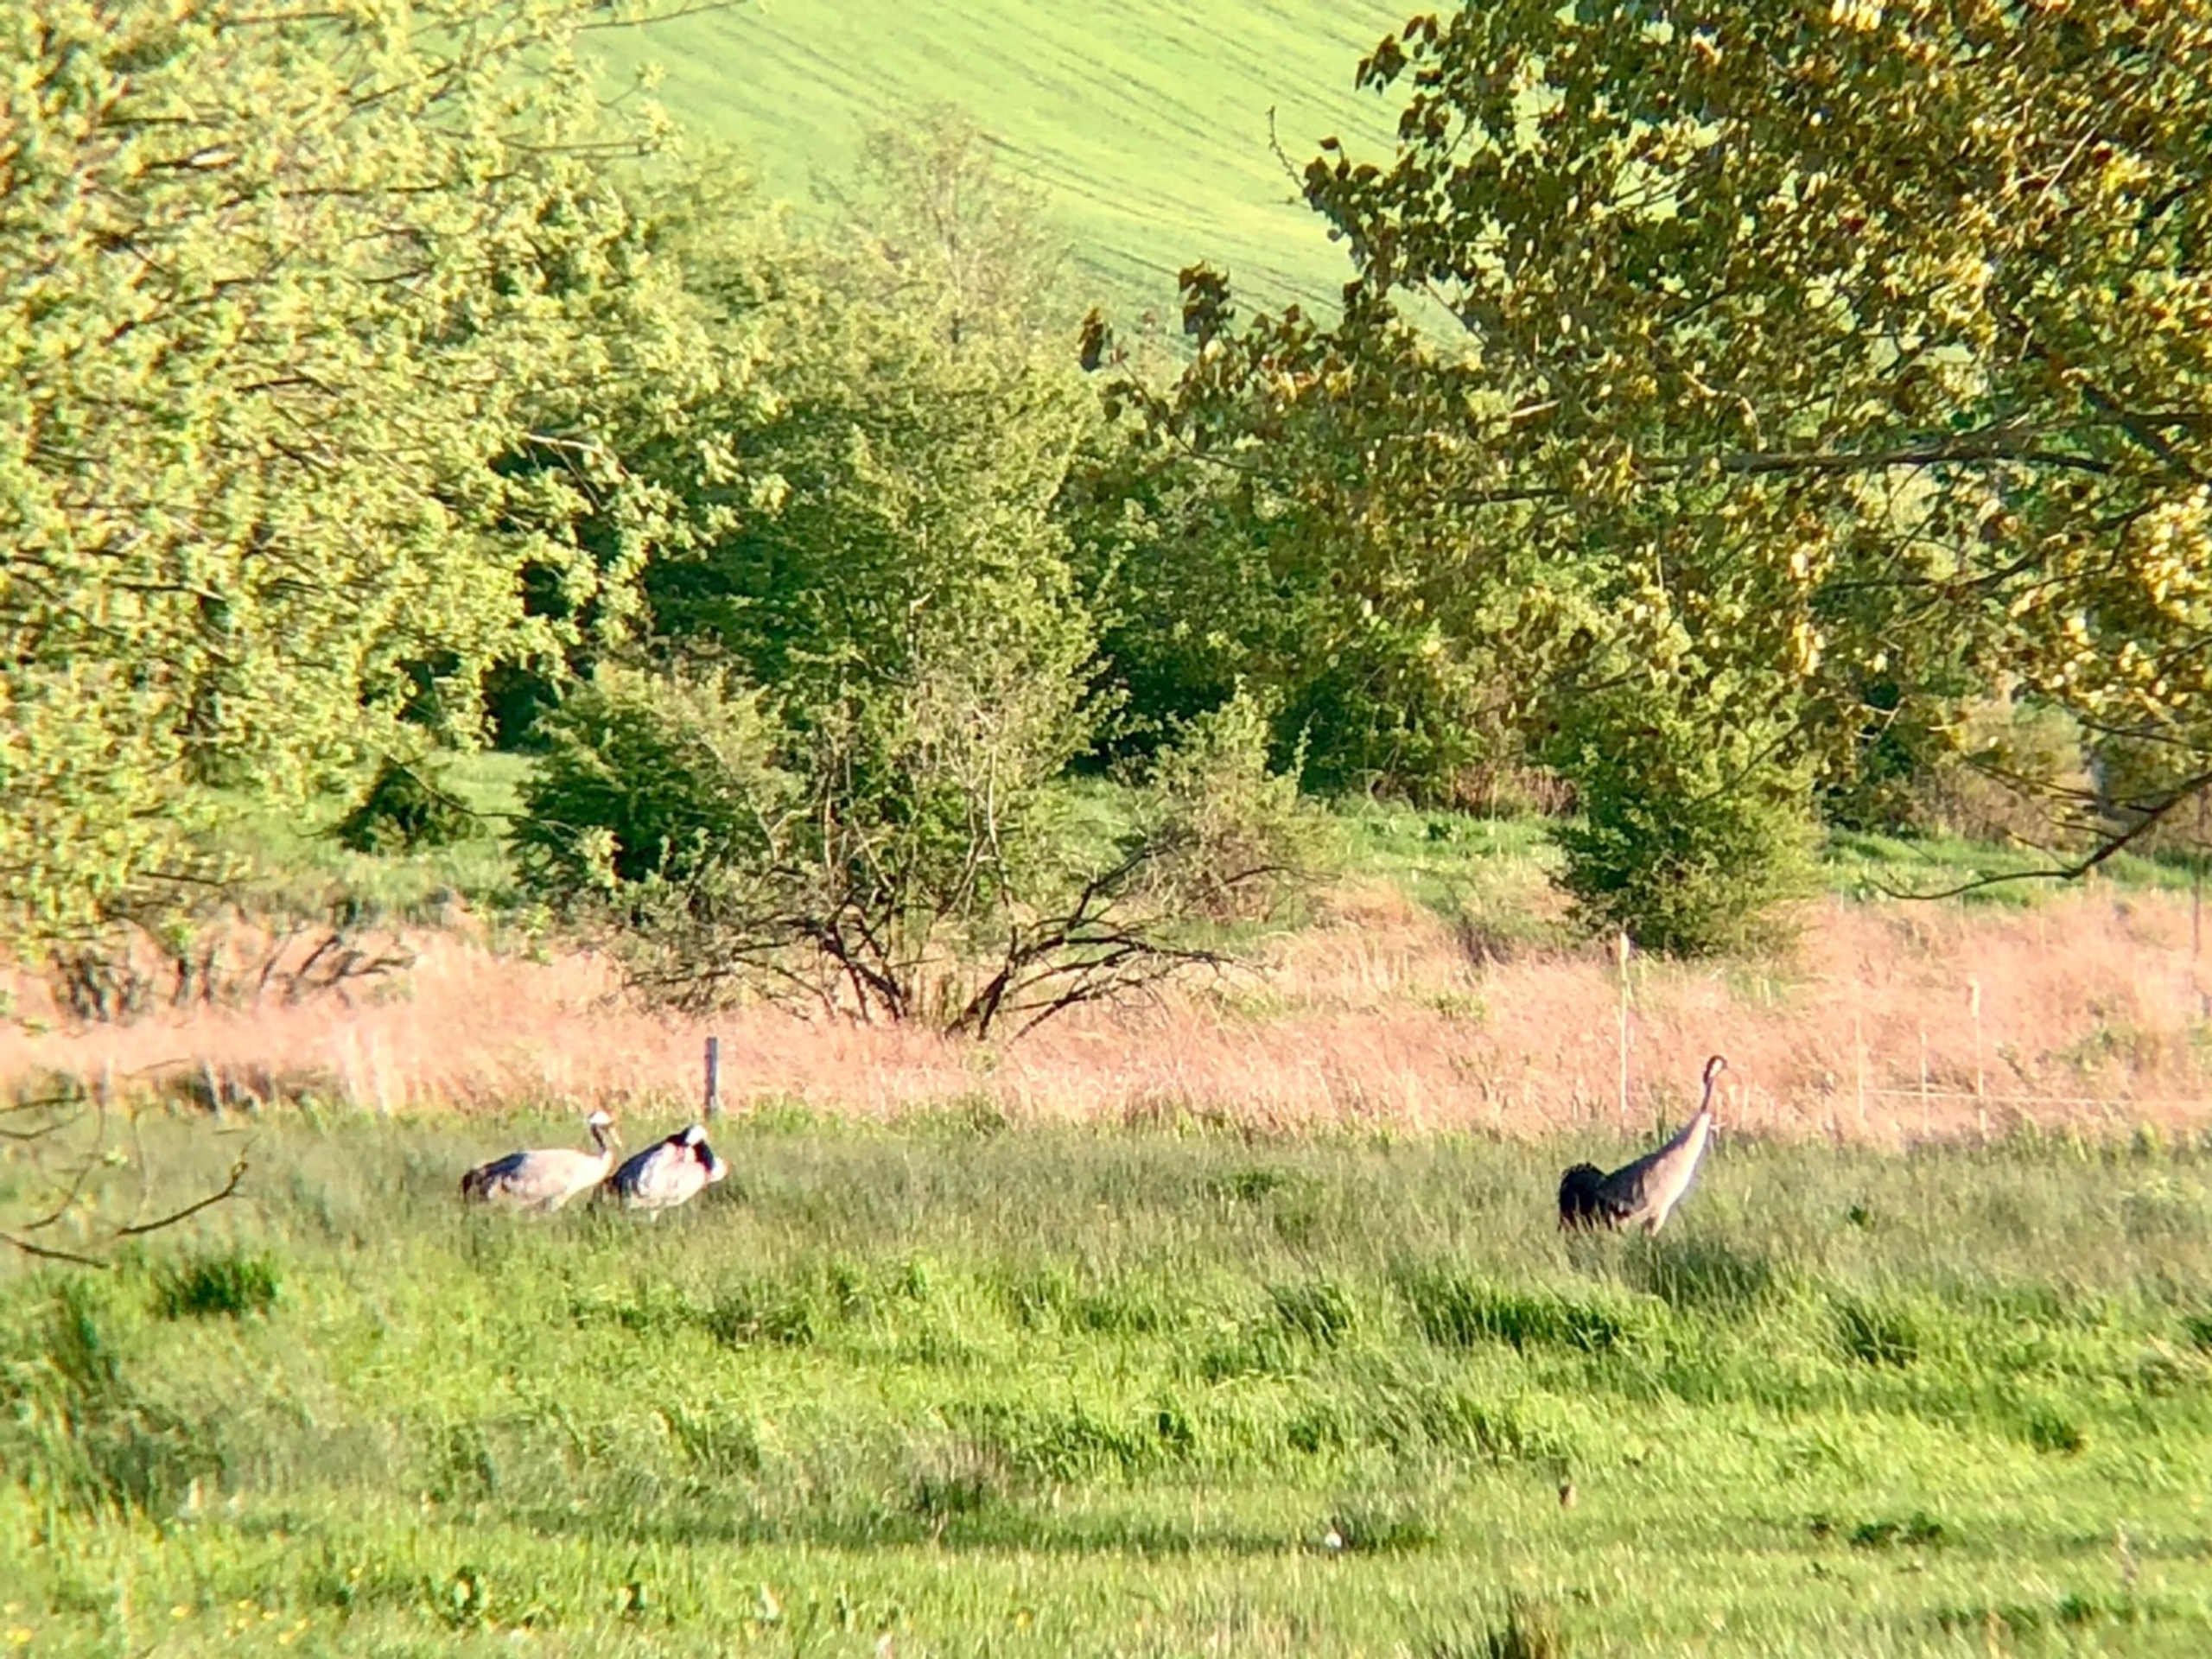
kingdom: Animalia
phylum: Chordata
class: Aves
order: Gruiformes
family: Gruidae
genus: Grus
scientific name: Grus grus
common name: Trane
